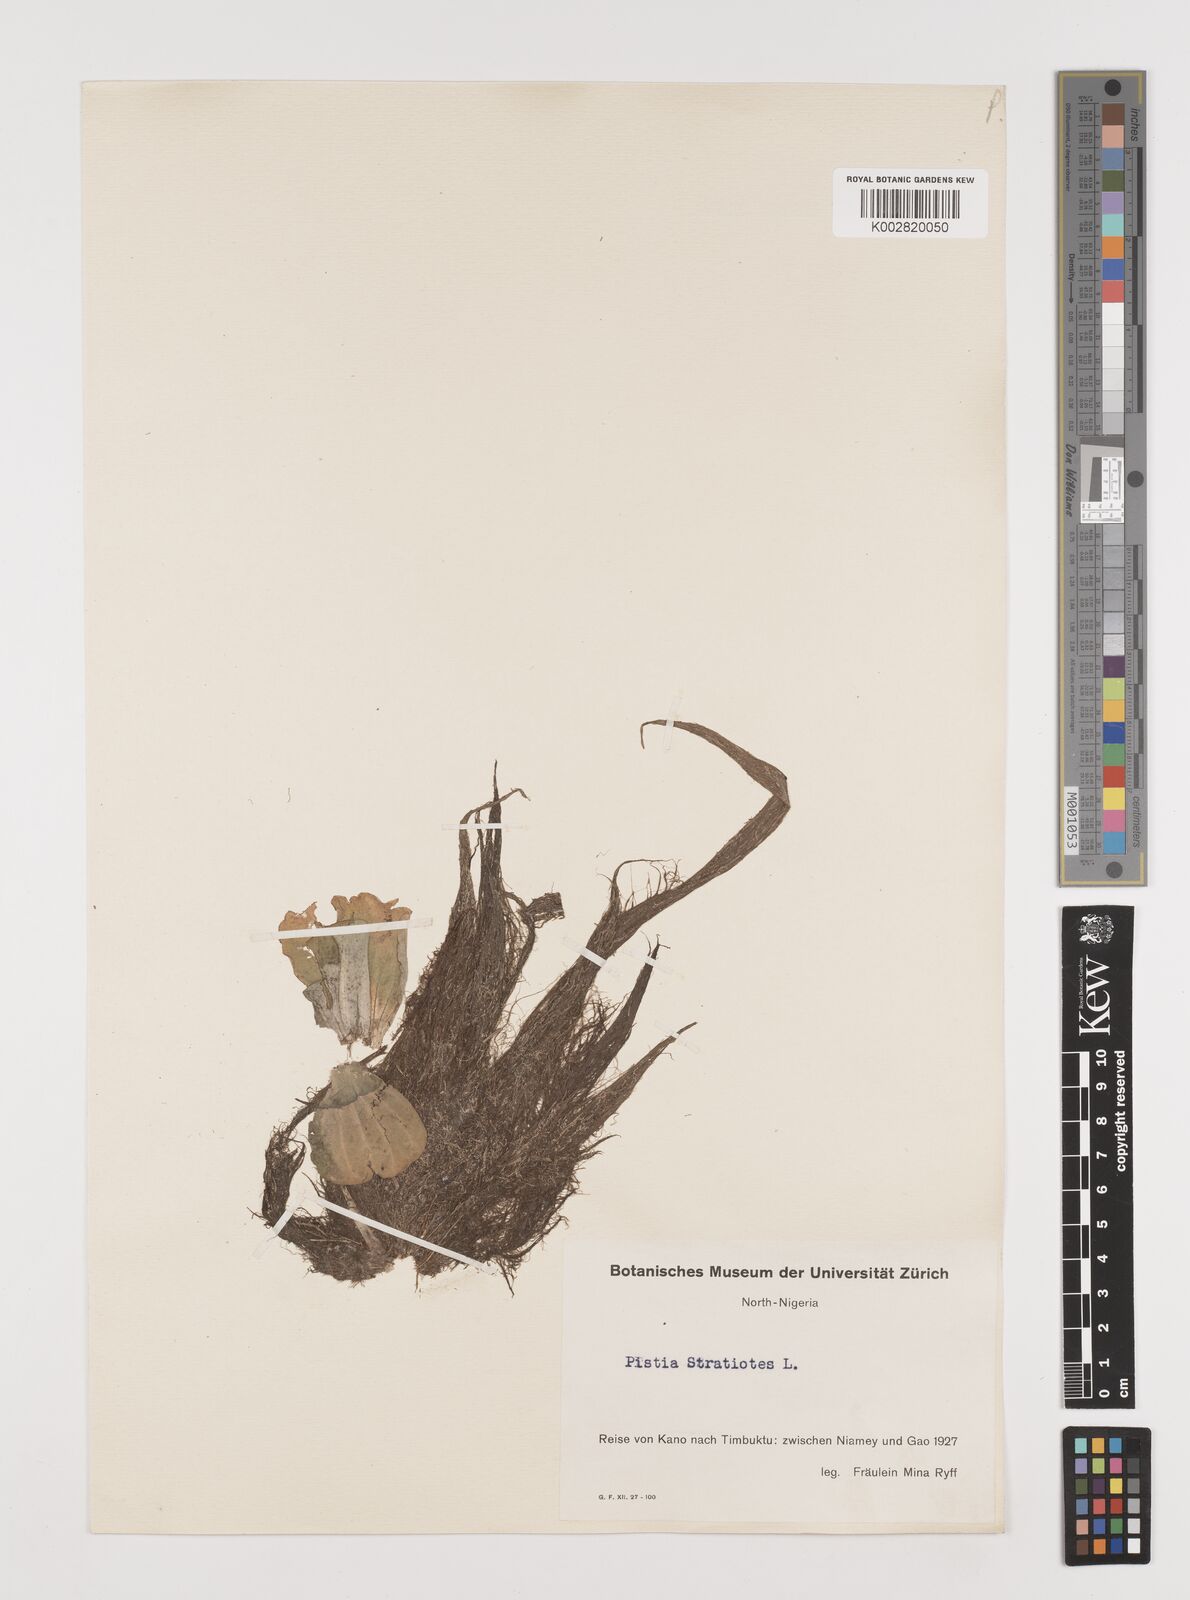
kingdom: Plantae
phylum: Tracheophyta
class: Liliopsida
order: Alismatales
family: Araceae
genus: Pistia
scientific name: Pistia stratiotes
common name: Water lettuce
